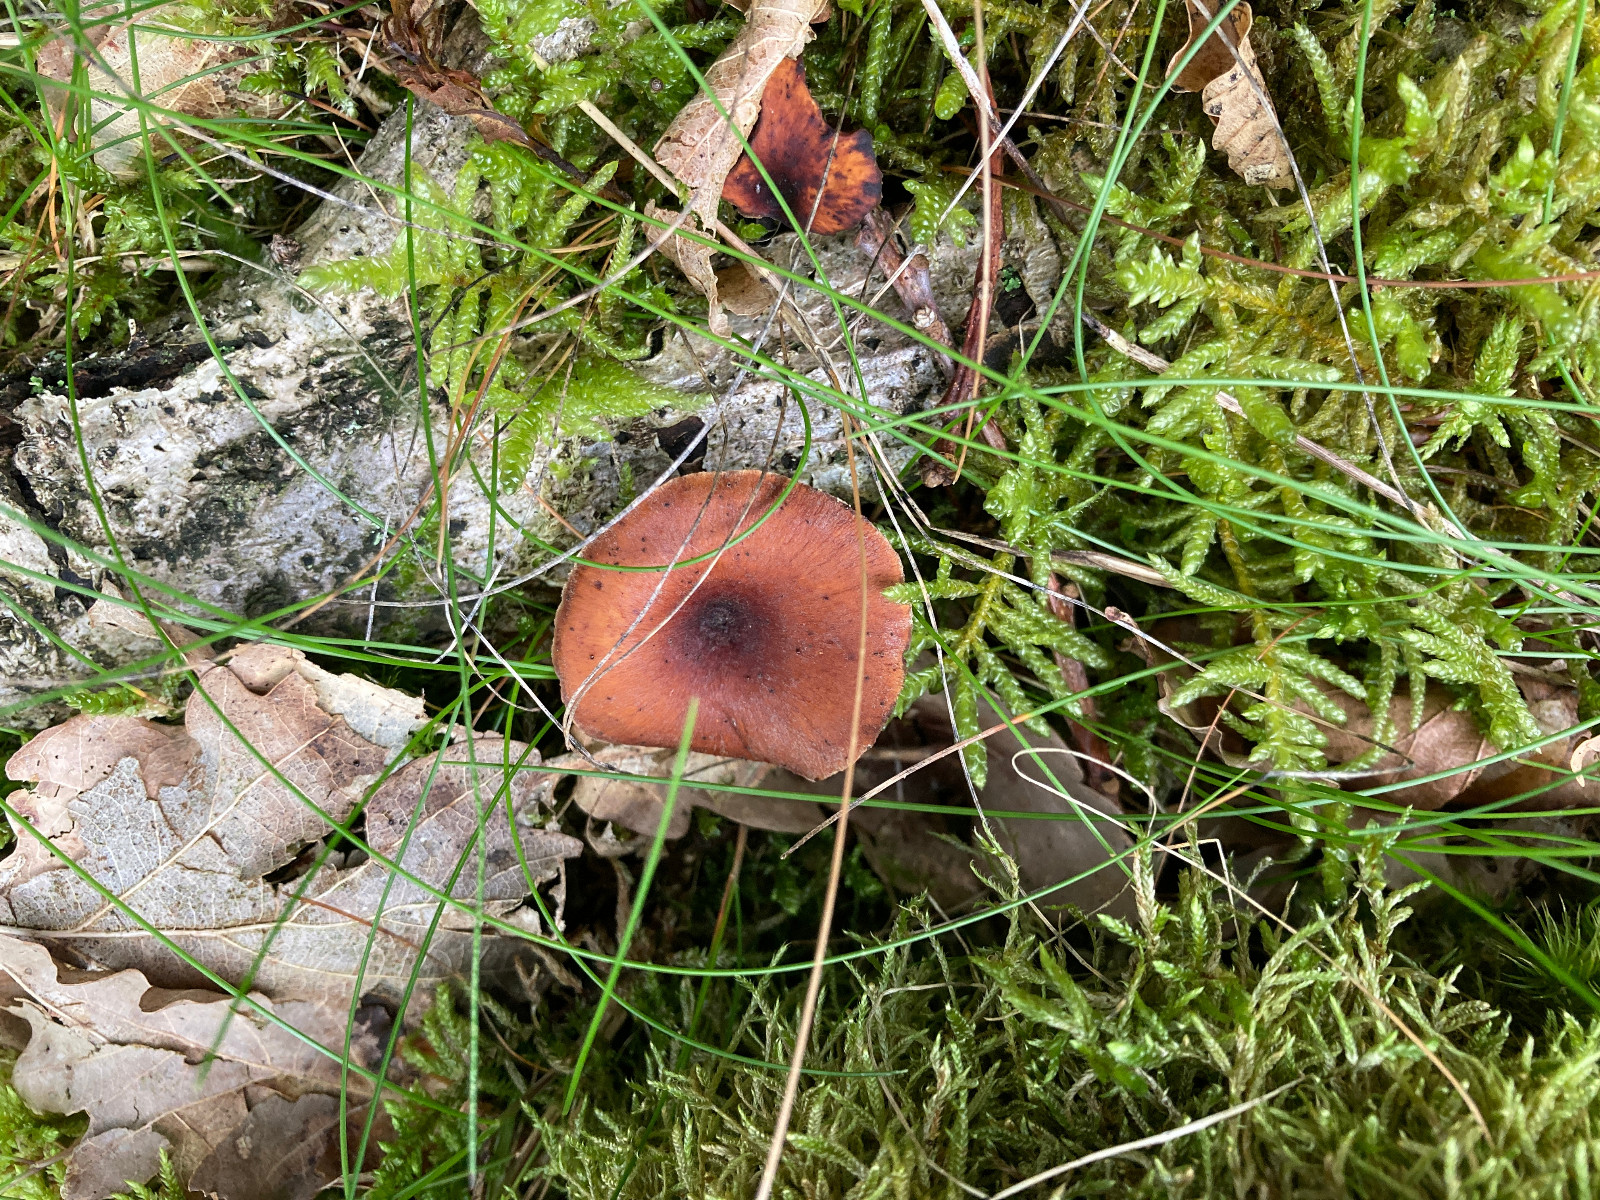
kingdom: Fungi
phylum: Basidiomycota
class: Agaricomycetes
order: Polyporales
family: Polyporaceae
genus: Picipes
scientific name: Picipes tubaeformis
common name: trompet-stilkporesvamp
